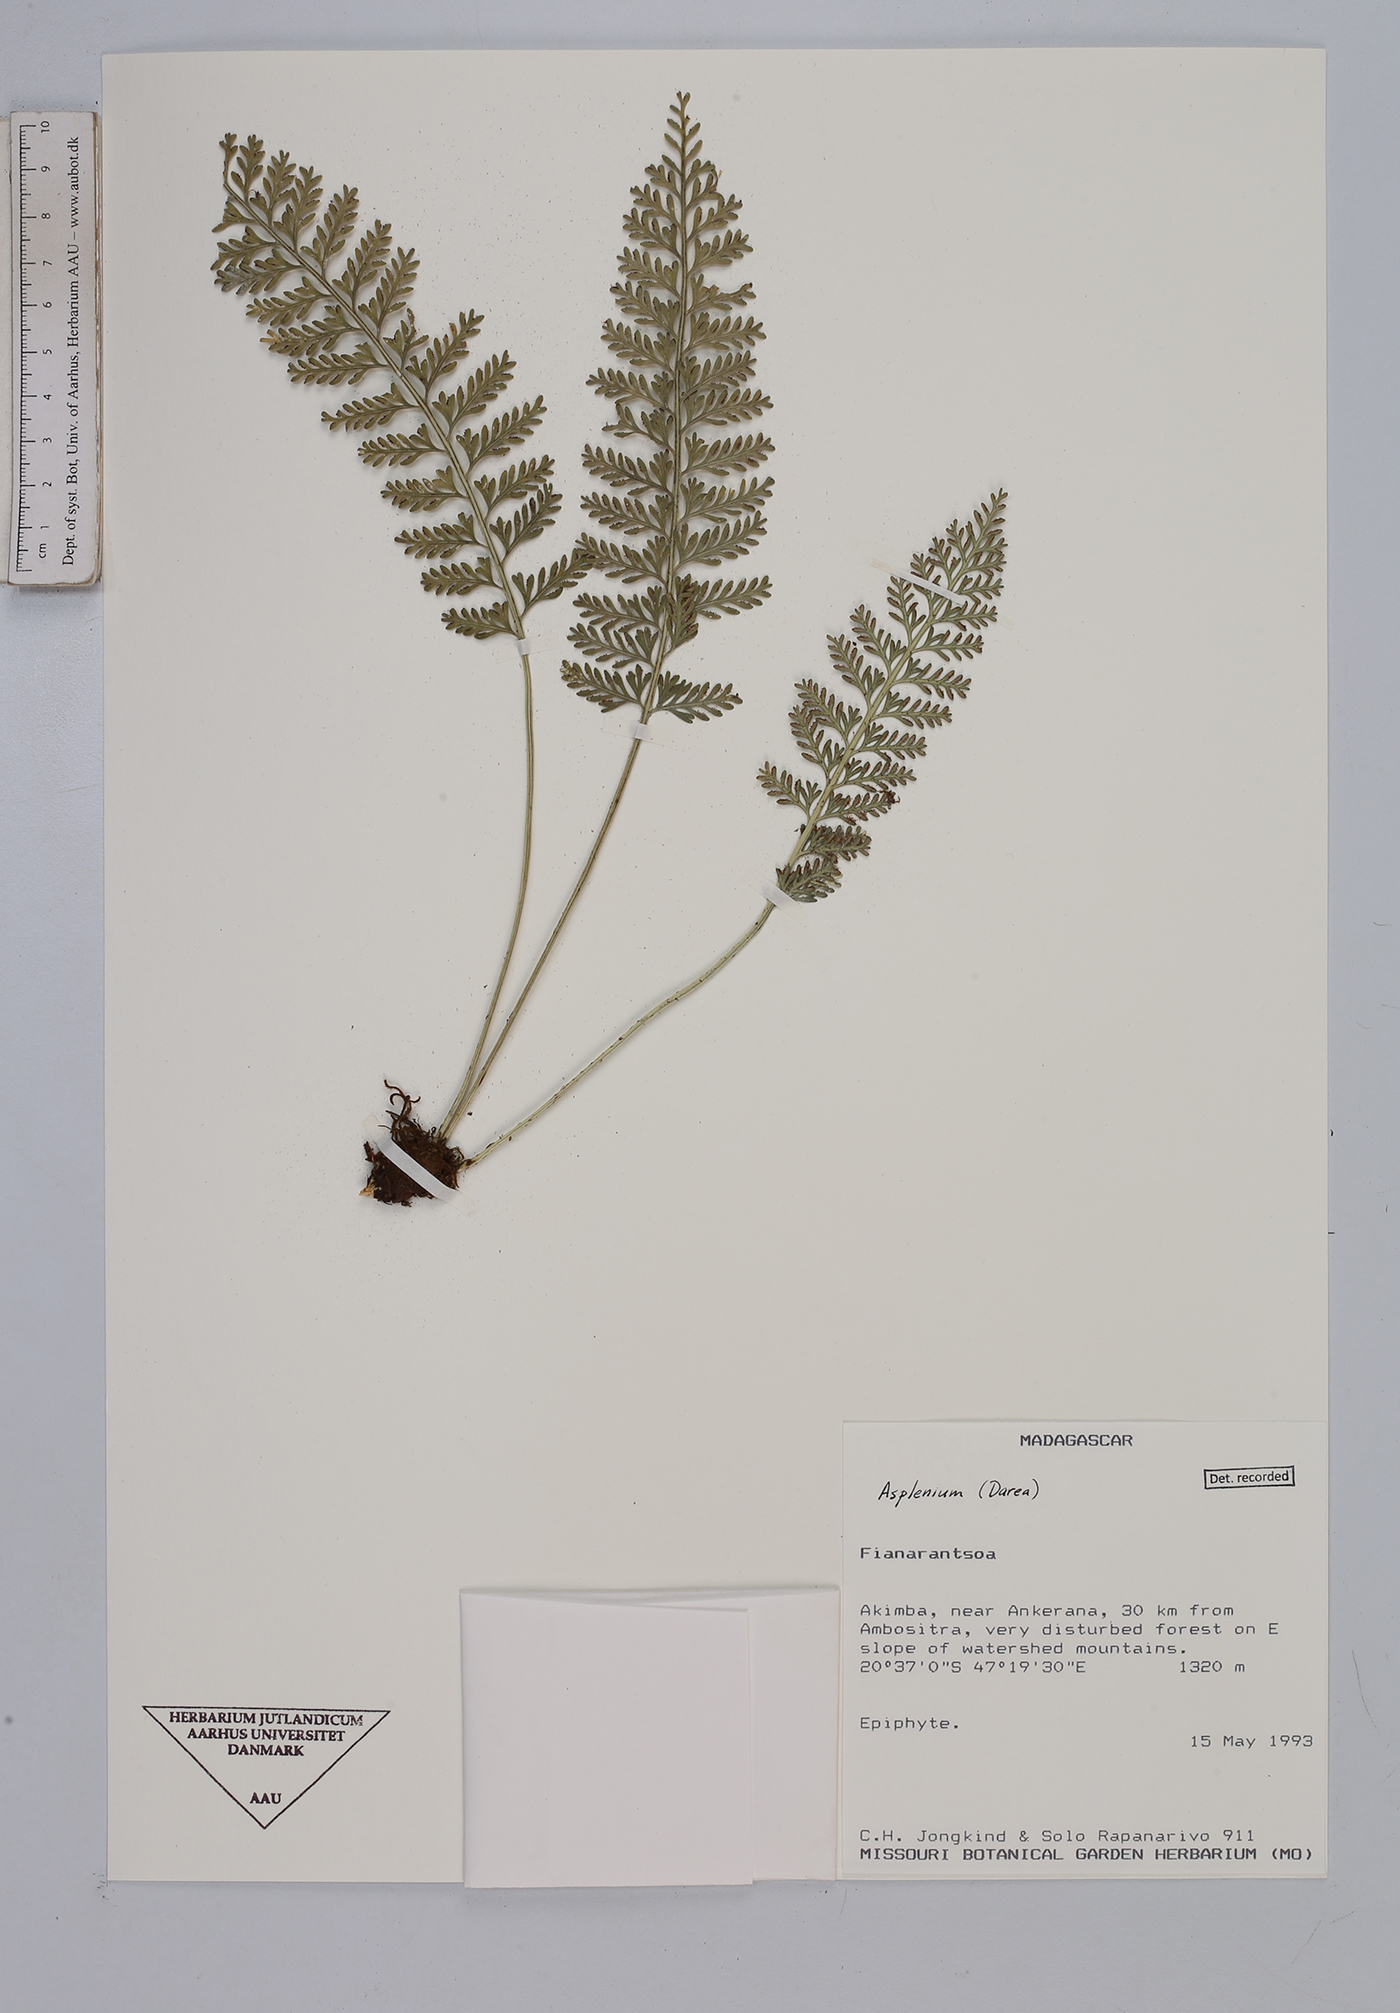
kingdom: Plantae
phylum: Tracheophyta
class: Polypodiopsida
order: Polypodiales
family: Aspleniaceae
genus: Asplenium
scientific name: Asplenium
